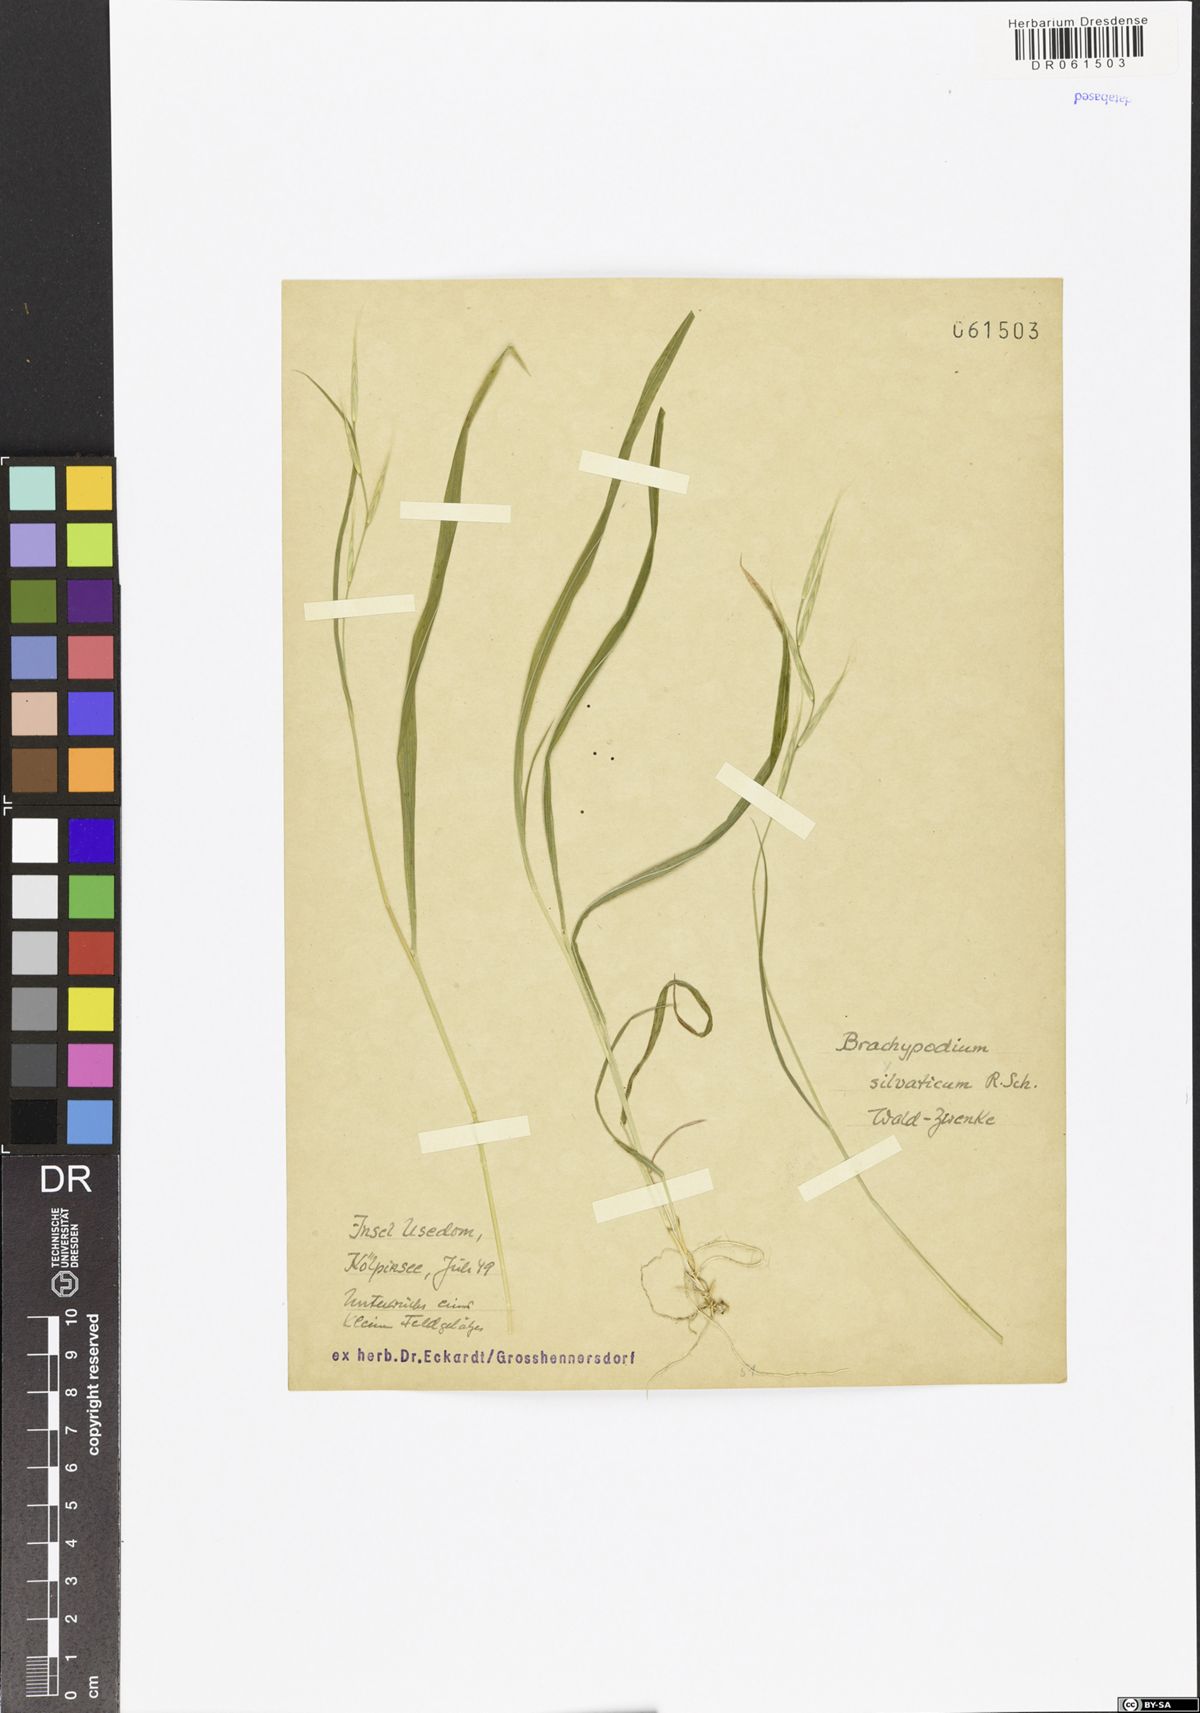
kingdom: Plantae
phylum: Tracheophyta
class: Liliopsida
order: Poales
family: Poaceae
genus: Brachypodium
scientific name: Brachypodium sylvaticum
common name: False-brome
